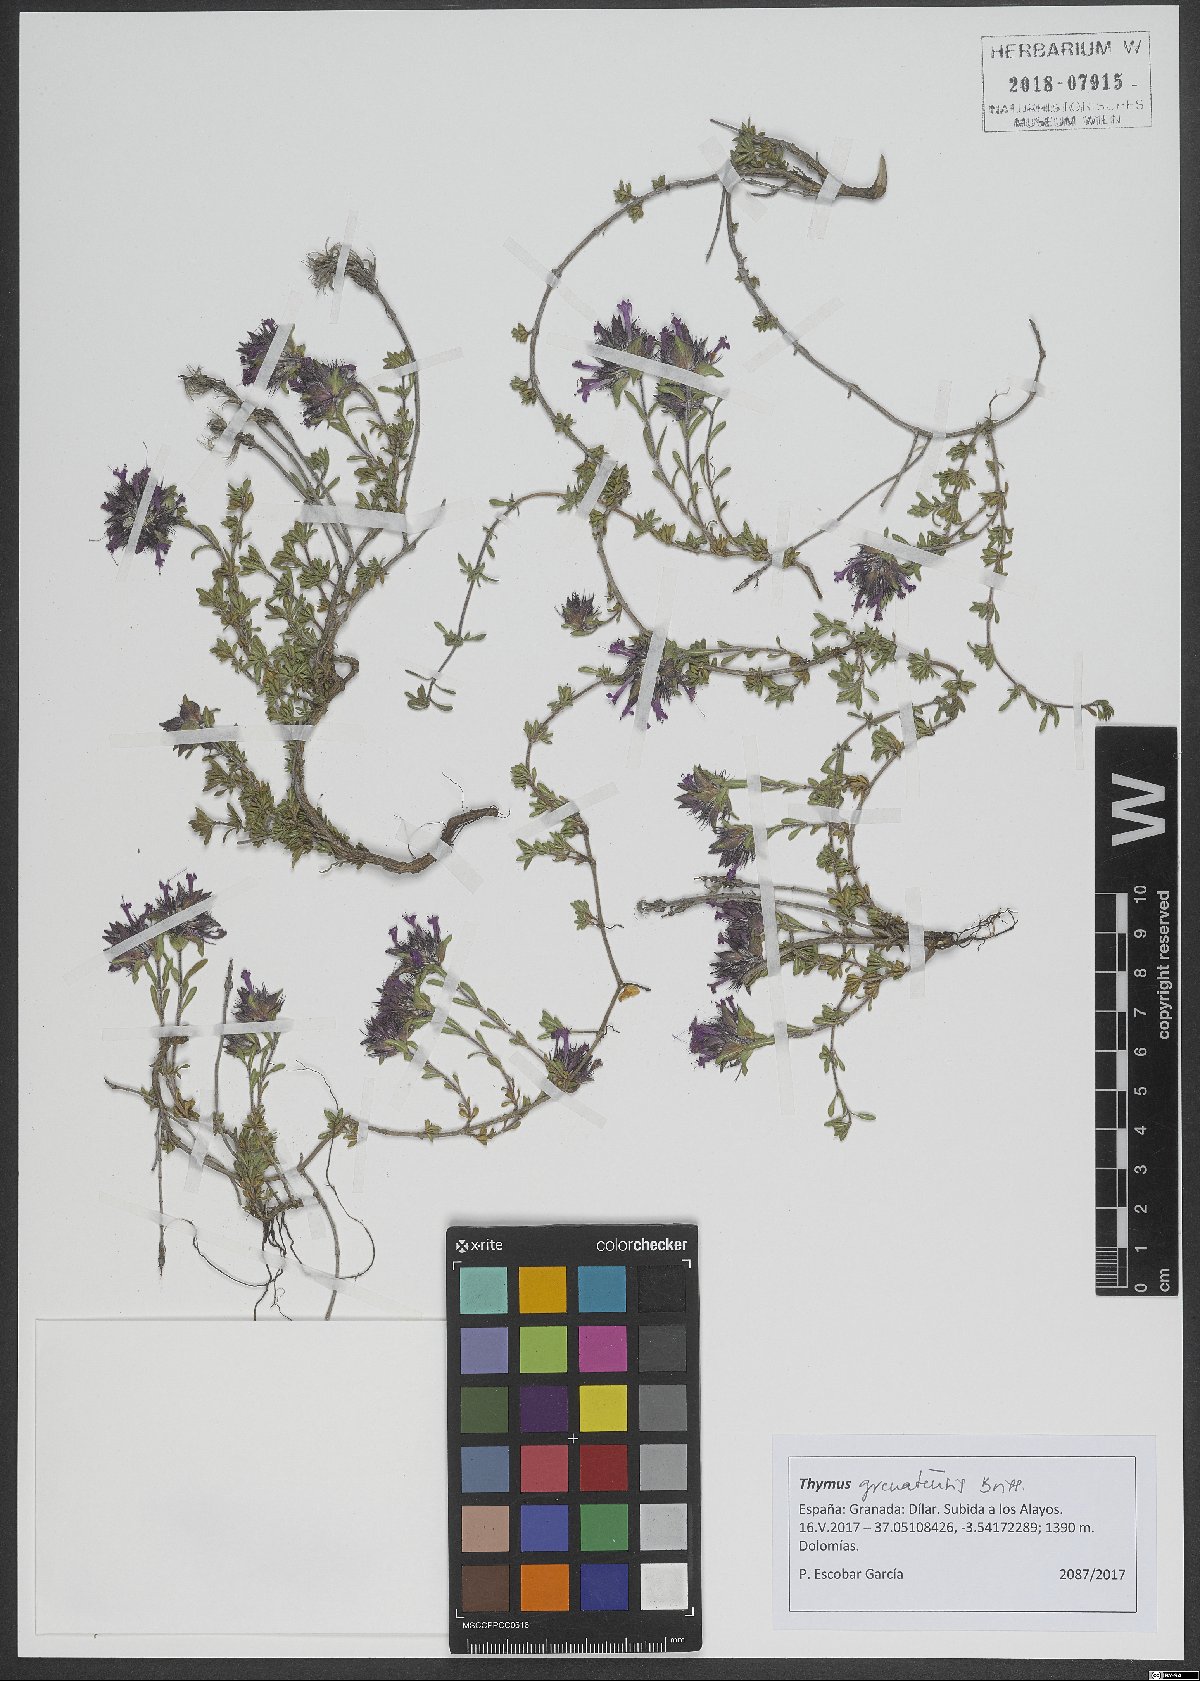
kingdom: Plantae
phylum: Tracheophyta
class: Magnoliopsida
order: Lamiales
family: Lamiaceae
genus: Thymus
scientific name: Thymus granatensis
